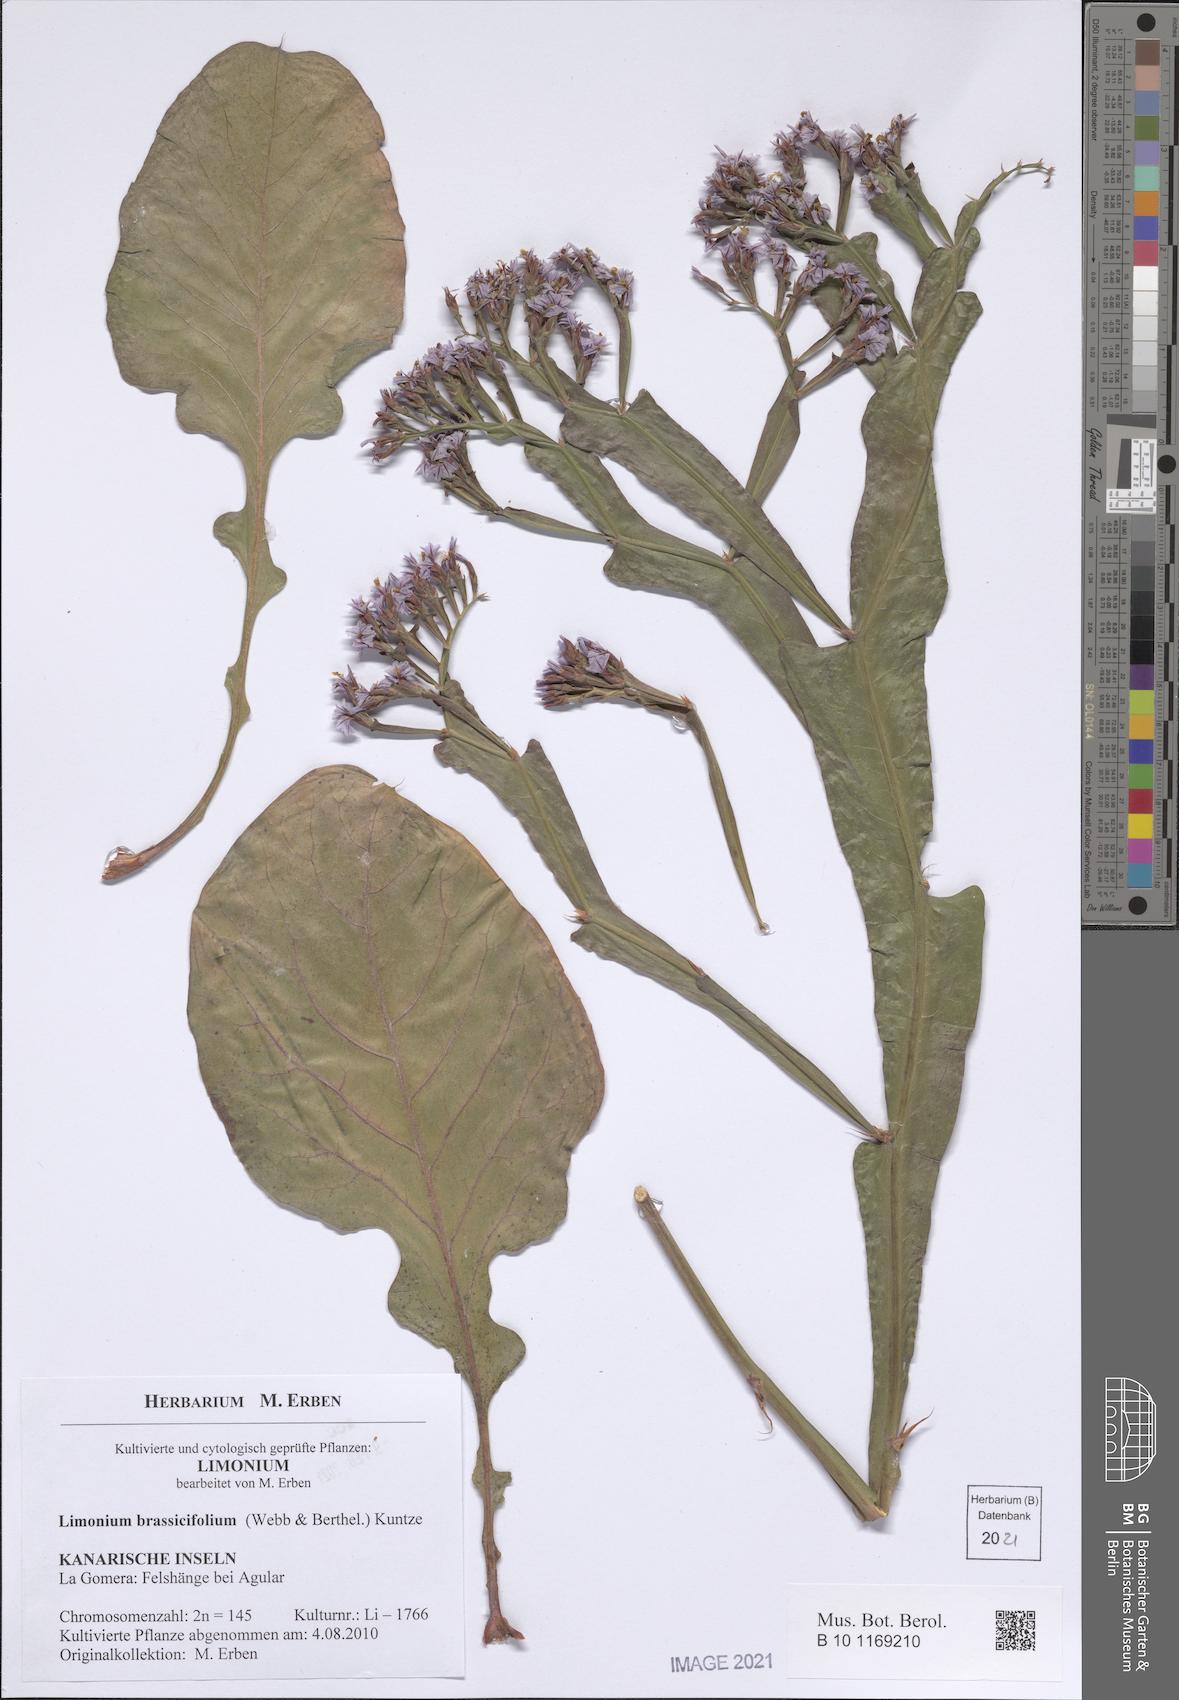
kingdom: Plantae
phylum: Tracheophyta
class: Magnoliopsida
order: Caryophyllales
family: Plumbaginaceae
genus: Limonium
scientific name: Limonium brassicifolium
